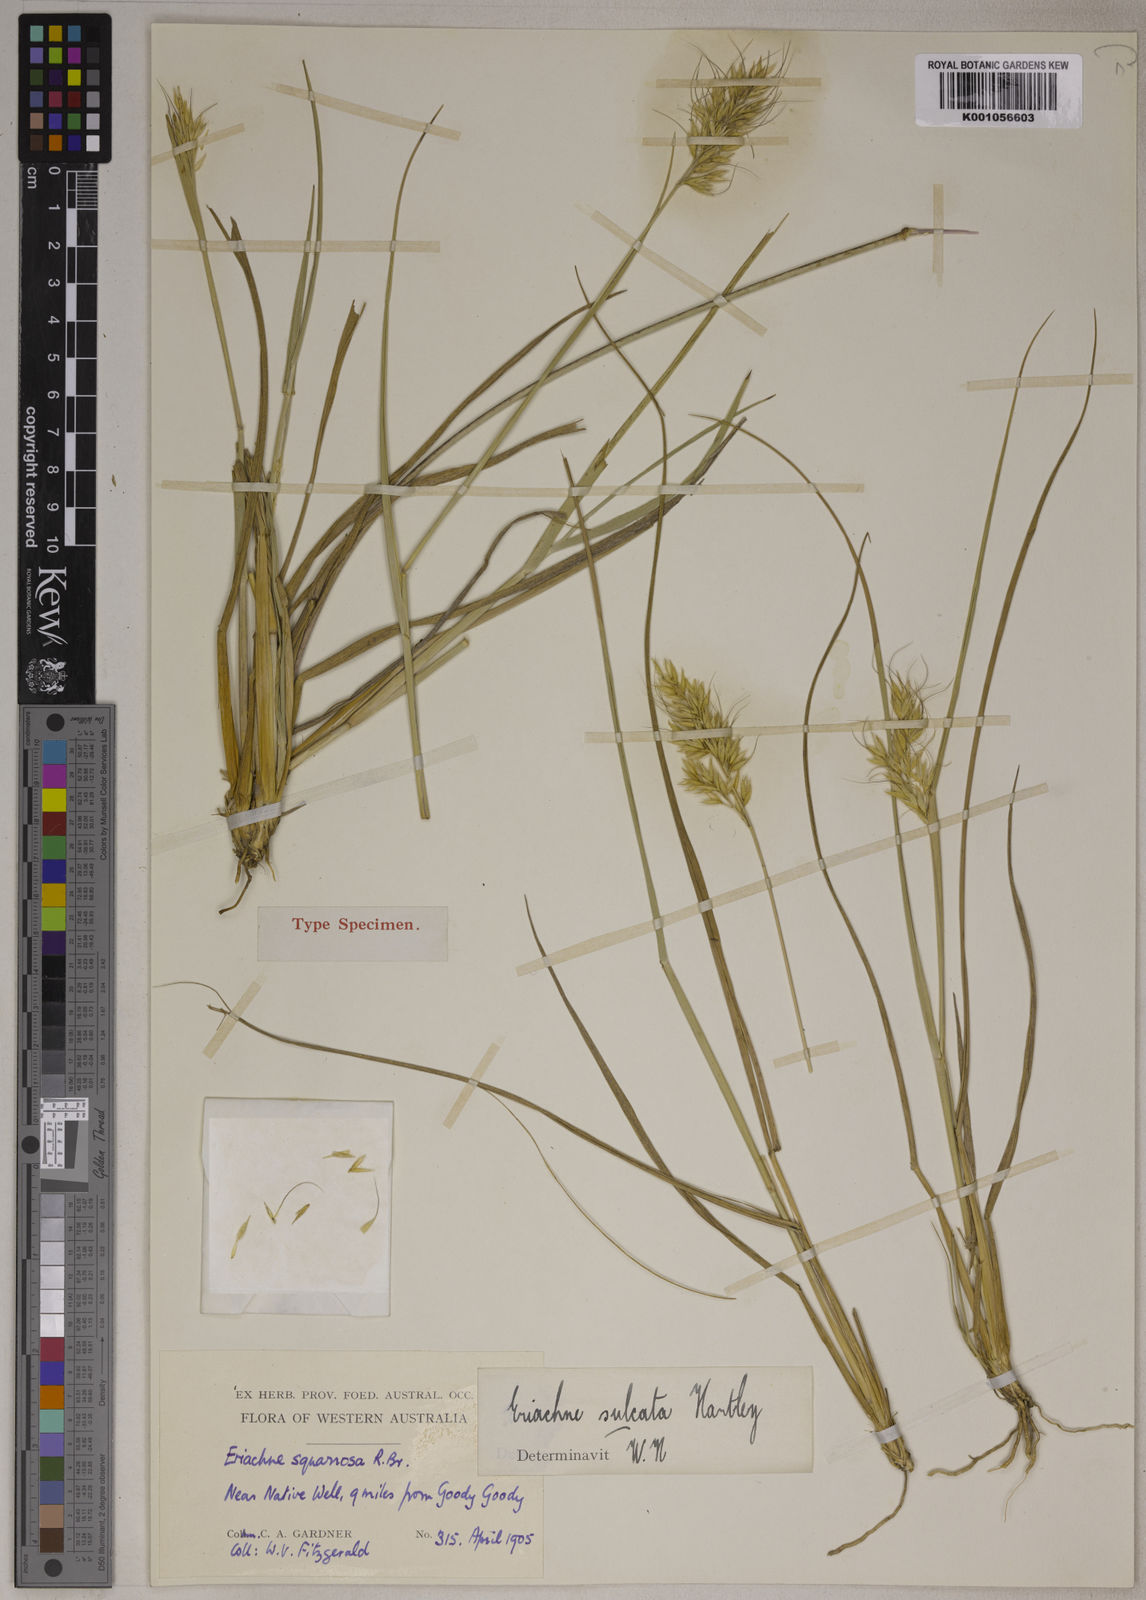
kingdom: Plantae
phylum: Tracheophyta
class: Liliopsida
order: Poales
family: Poaceae
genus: Eriachne
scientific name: Eriachne sulcata
